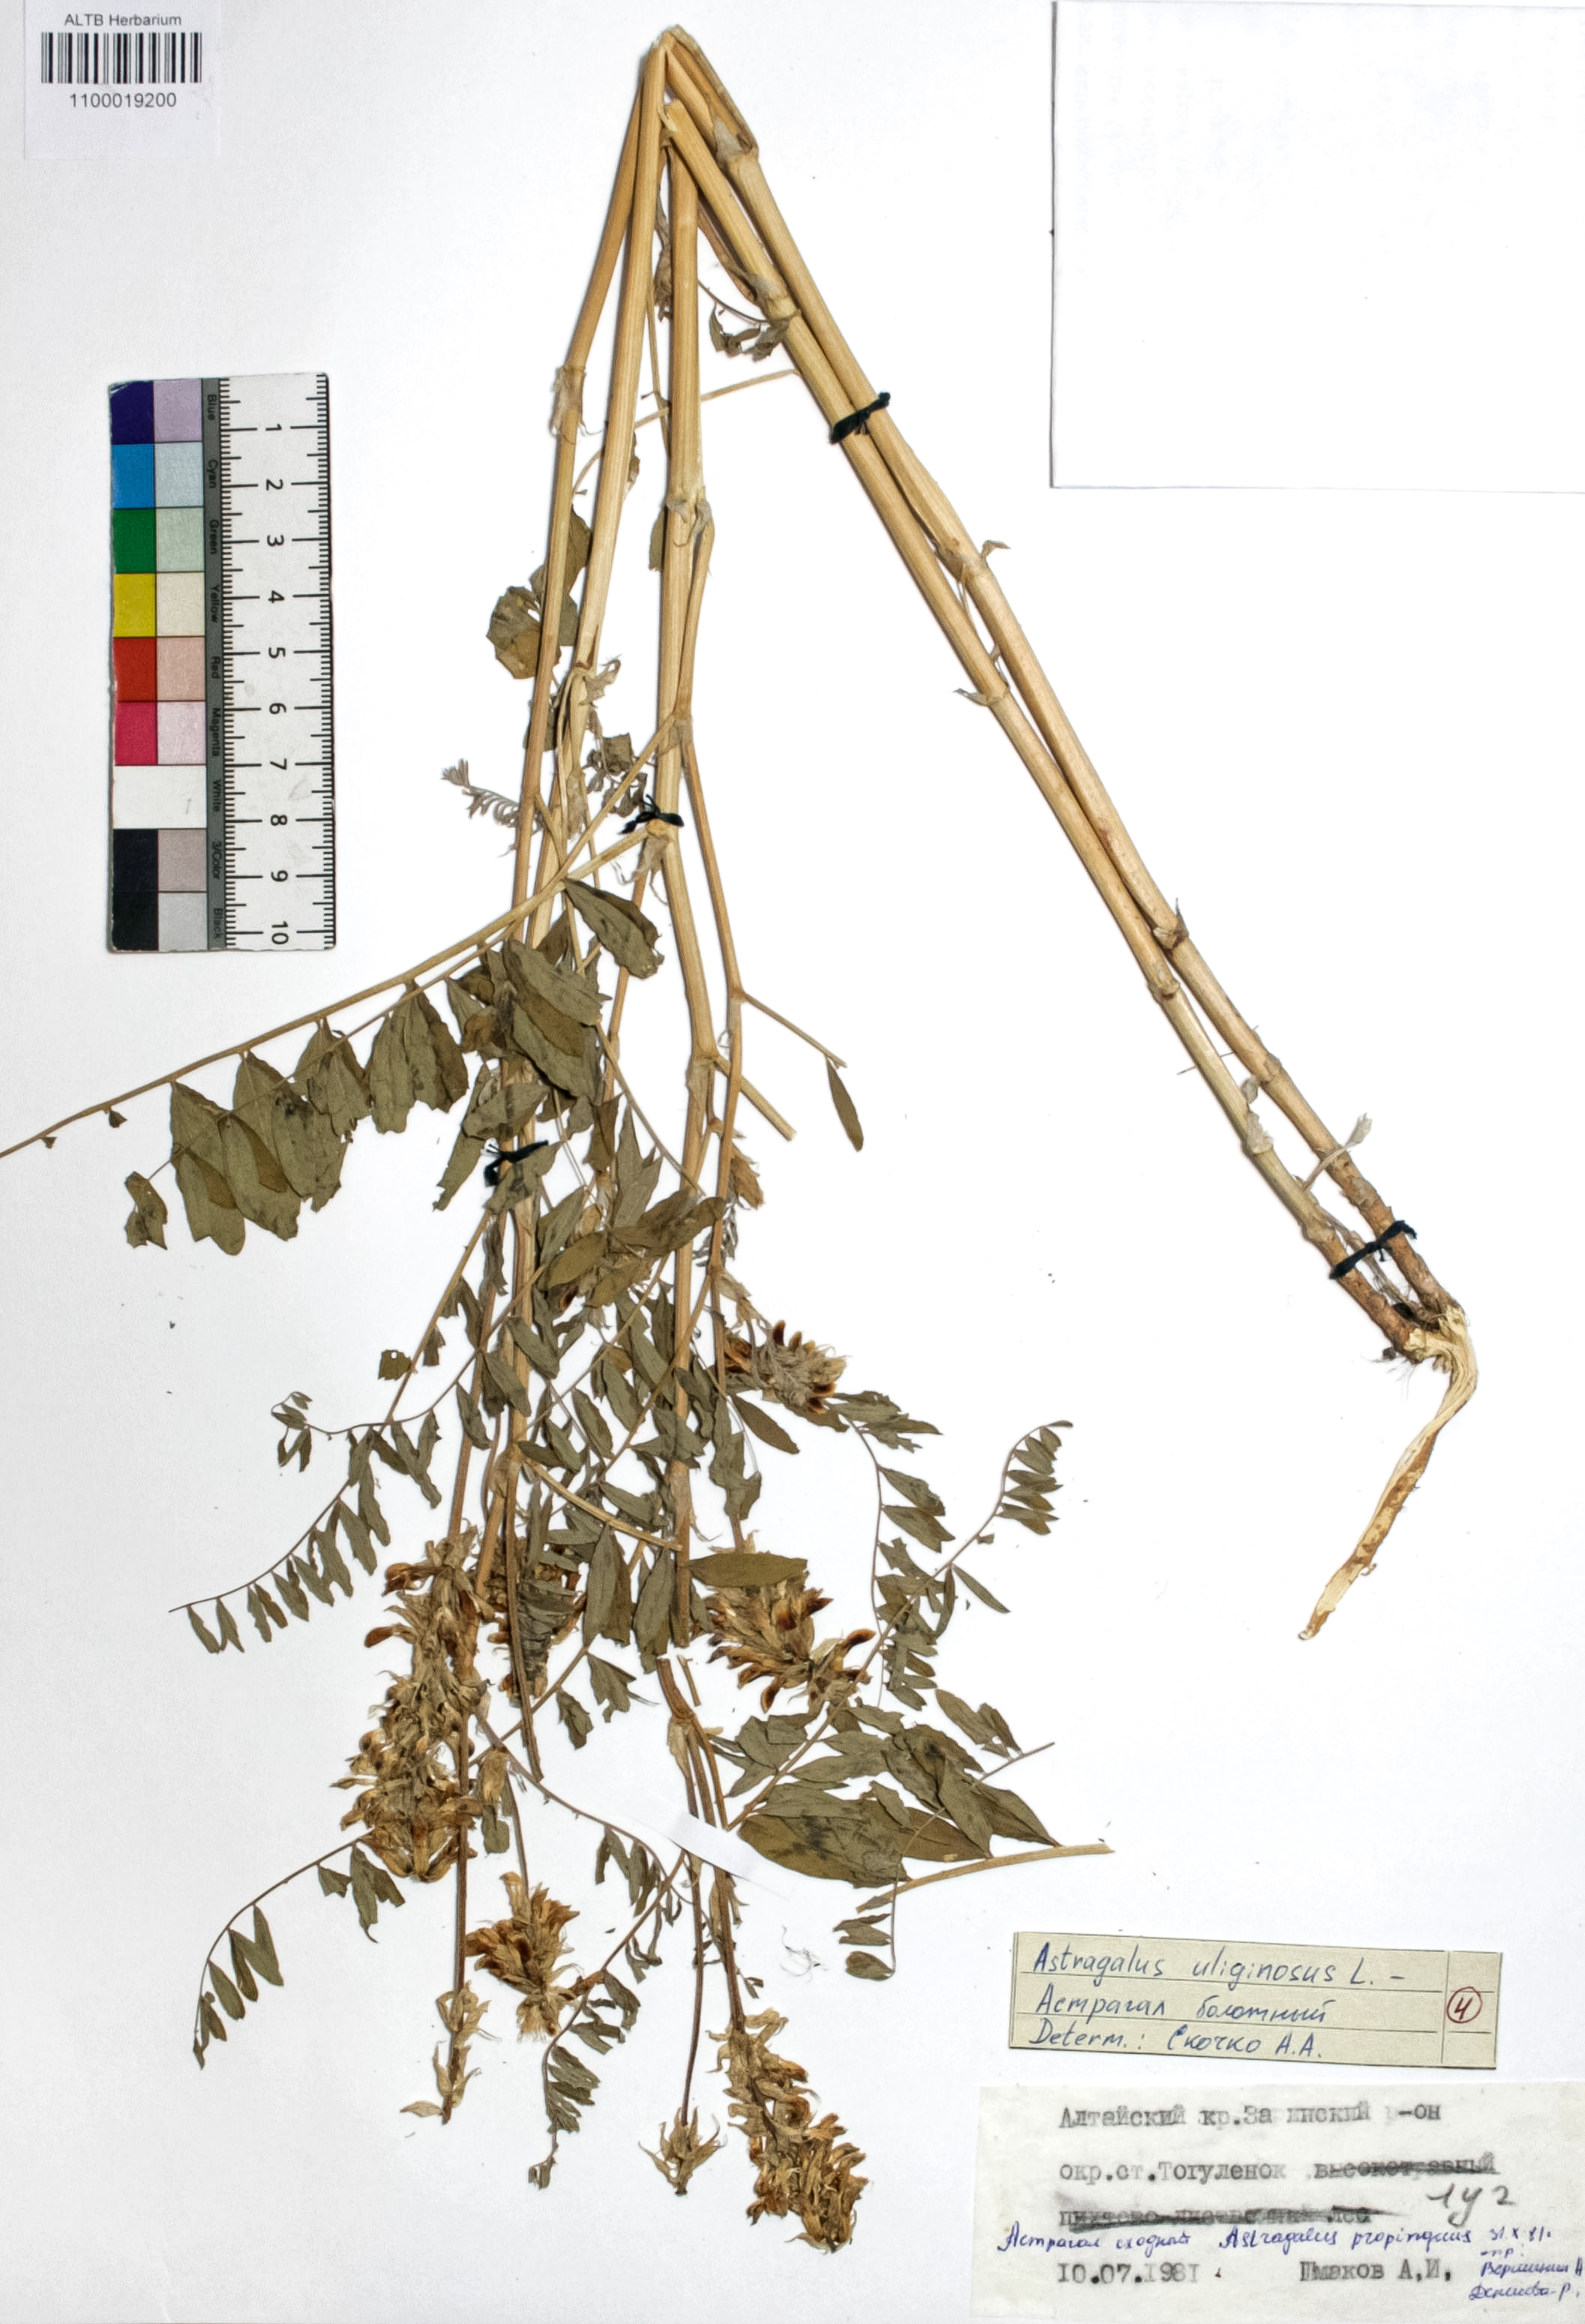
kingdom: Plantae
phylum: Tracheophyta
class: Magnoliopsida
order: Fabales
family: Fabaceae
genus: Astragalus
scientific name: Astragalus cornutus
